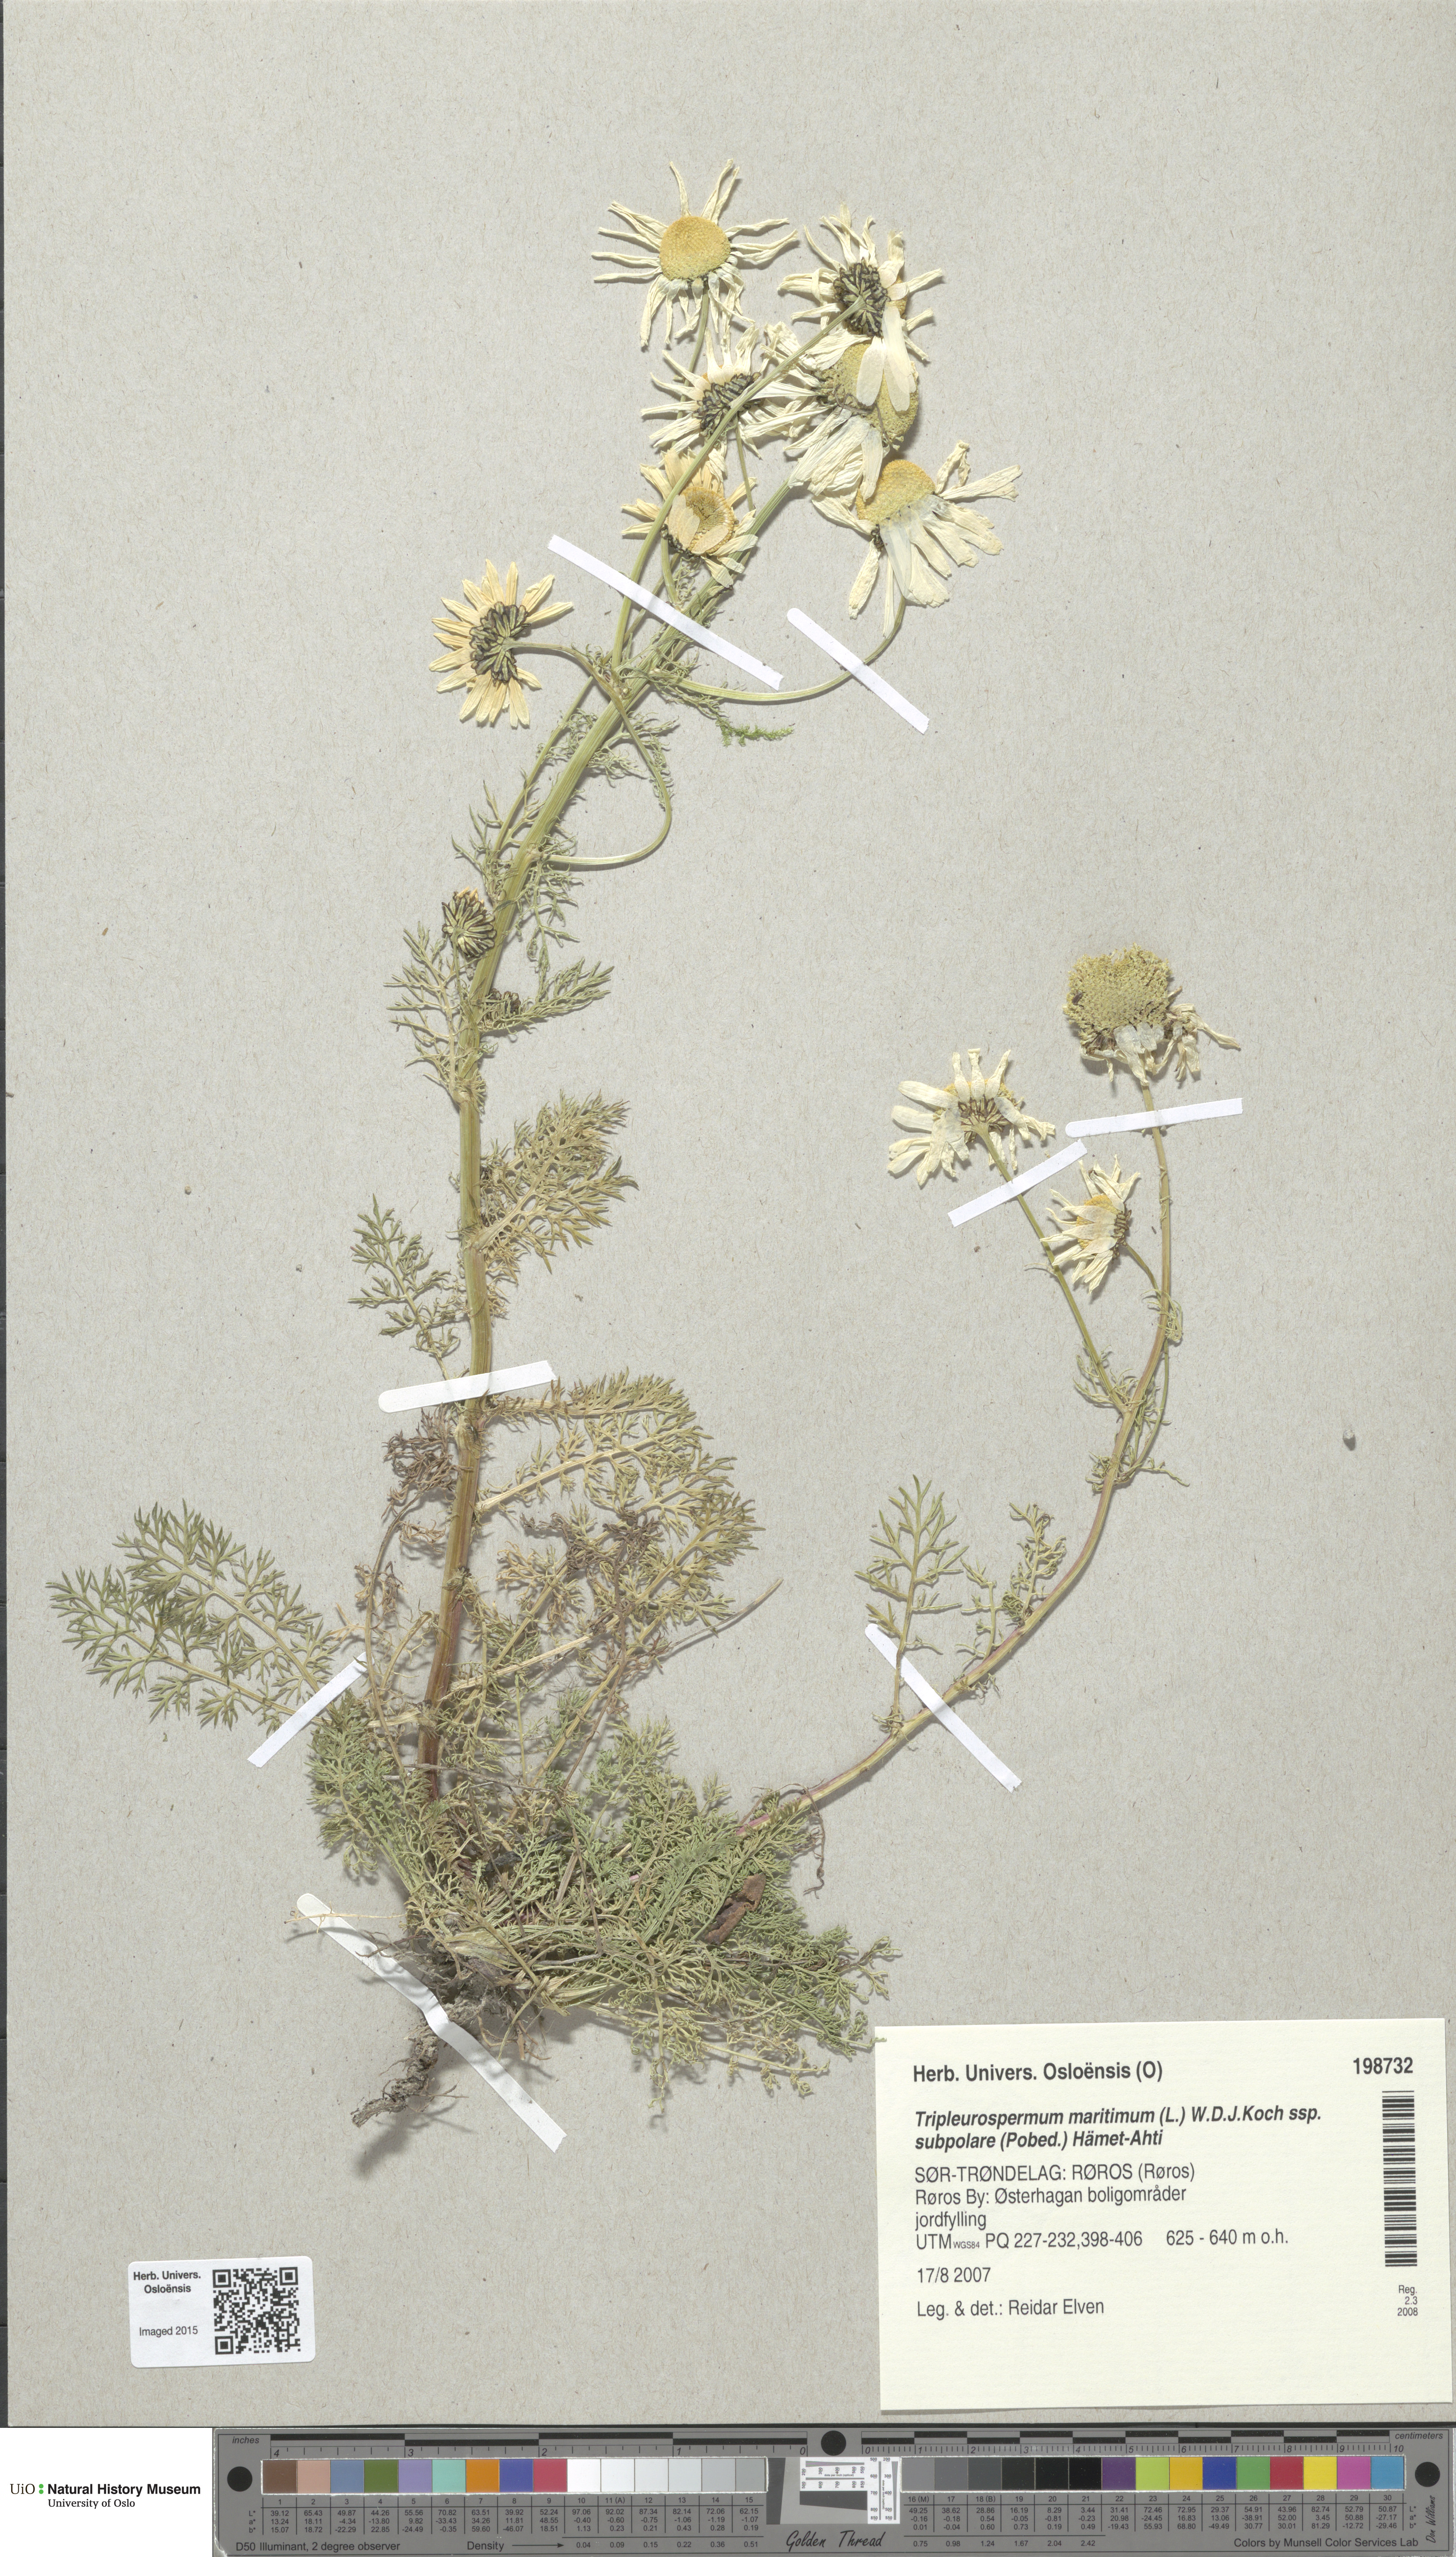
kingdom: Plantae
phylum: Tracheophyta
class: Magnoliopsida
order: Asterales
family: Asteraceae
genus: Tripleurospermum
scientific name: Tripleurospermum subpolare
